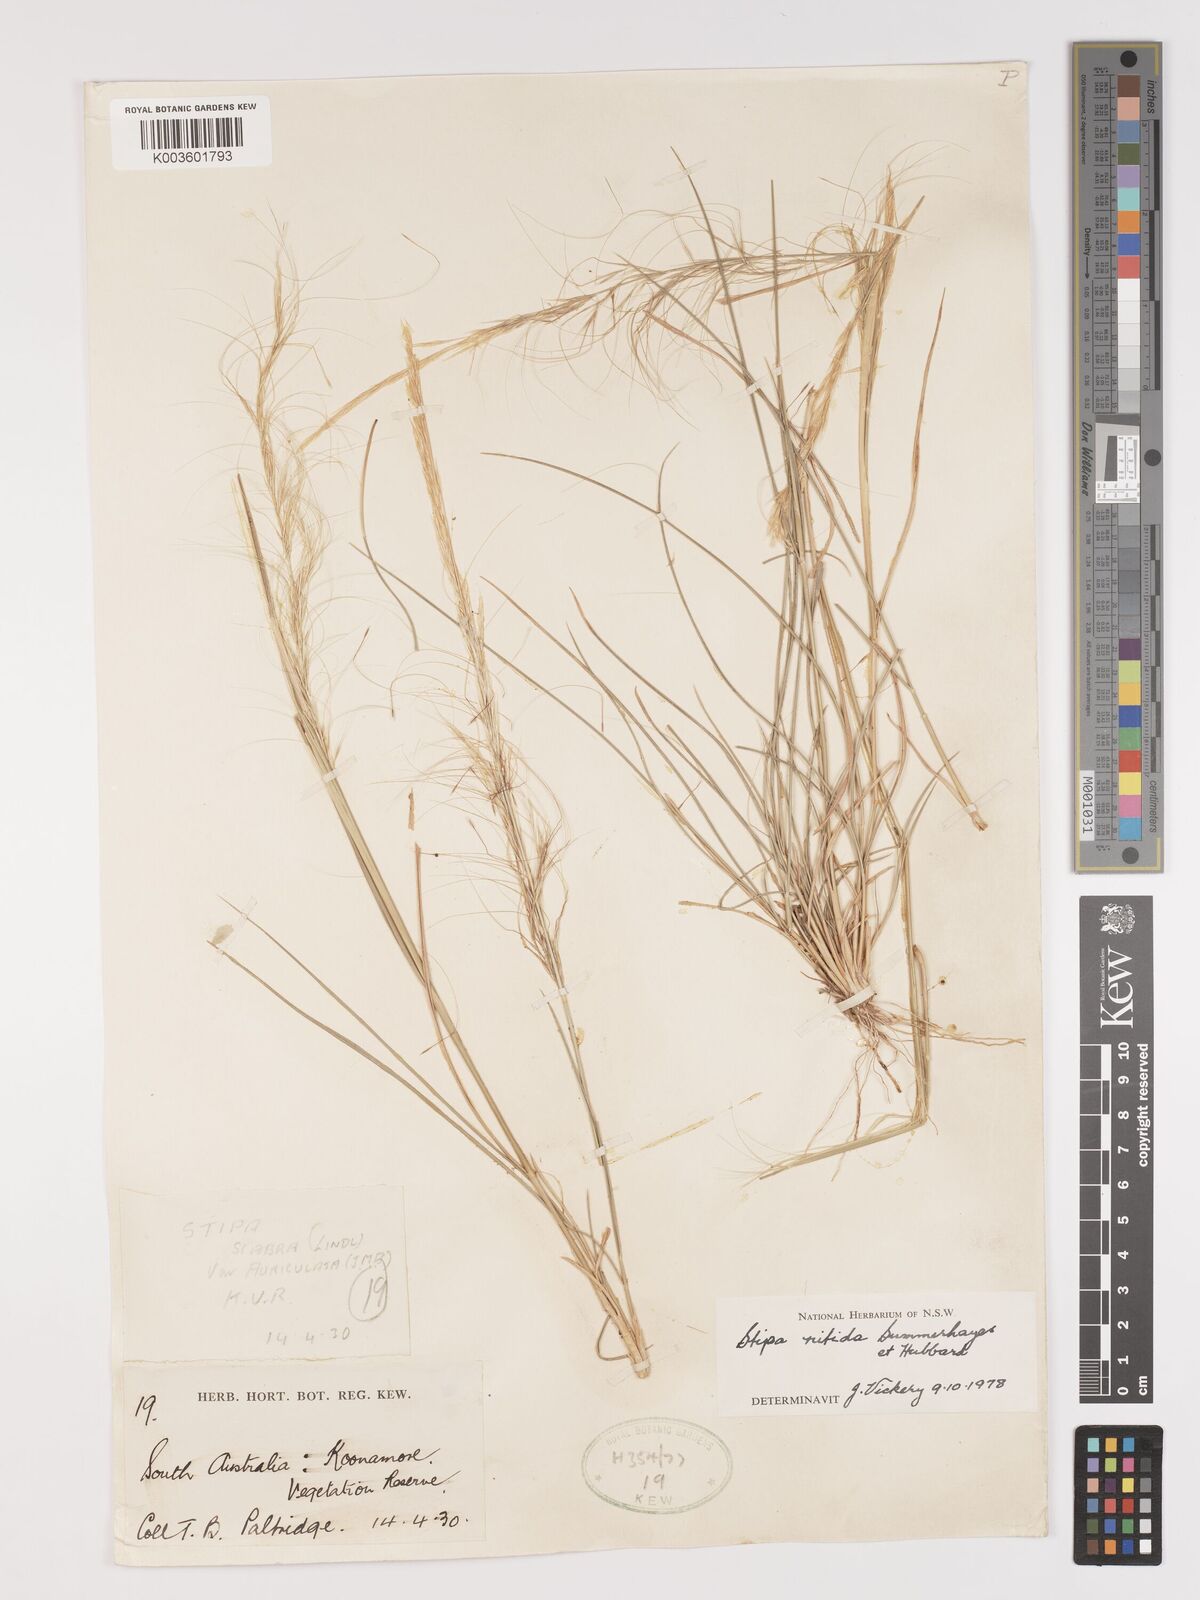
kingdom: Plantae
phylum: Tracheophyta
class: Liliopsida
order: Poales
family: Poaceae
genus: Austrostipa
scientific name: Austrostipa nitida
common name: Balcarra grass
